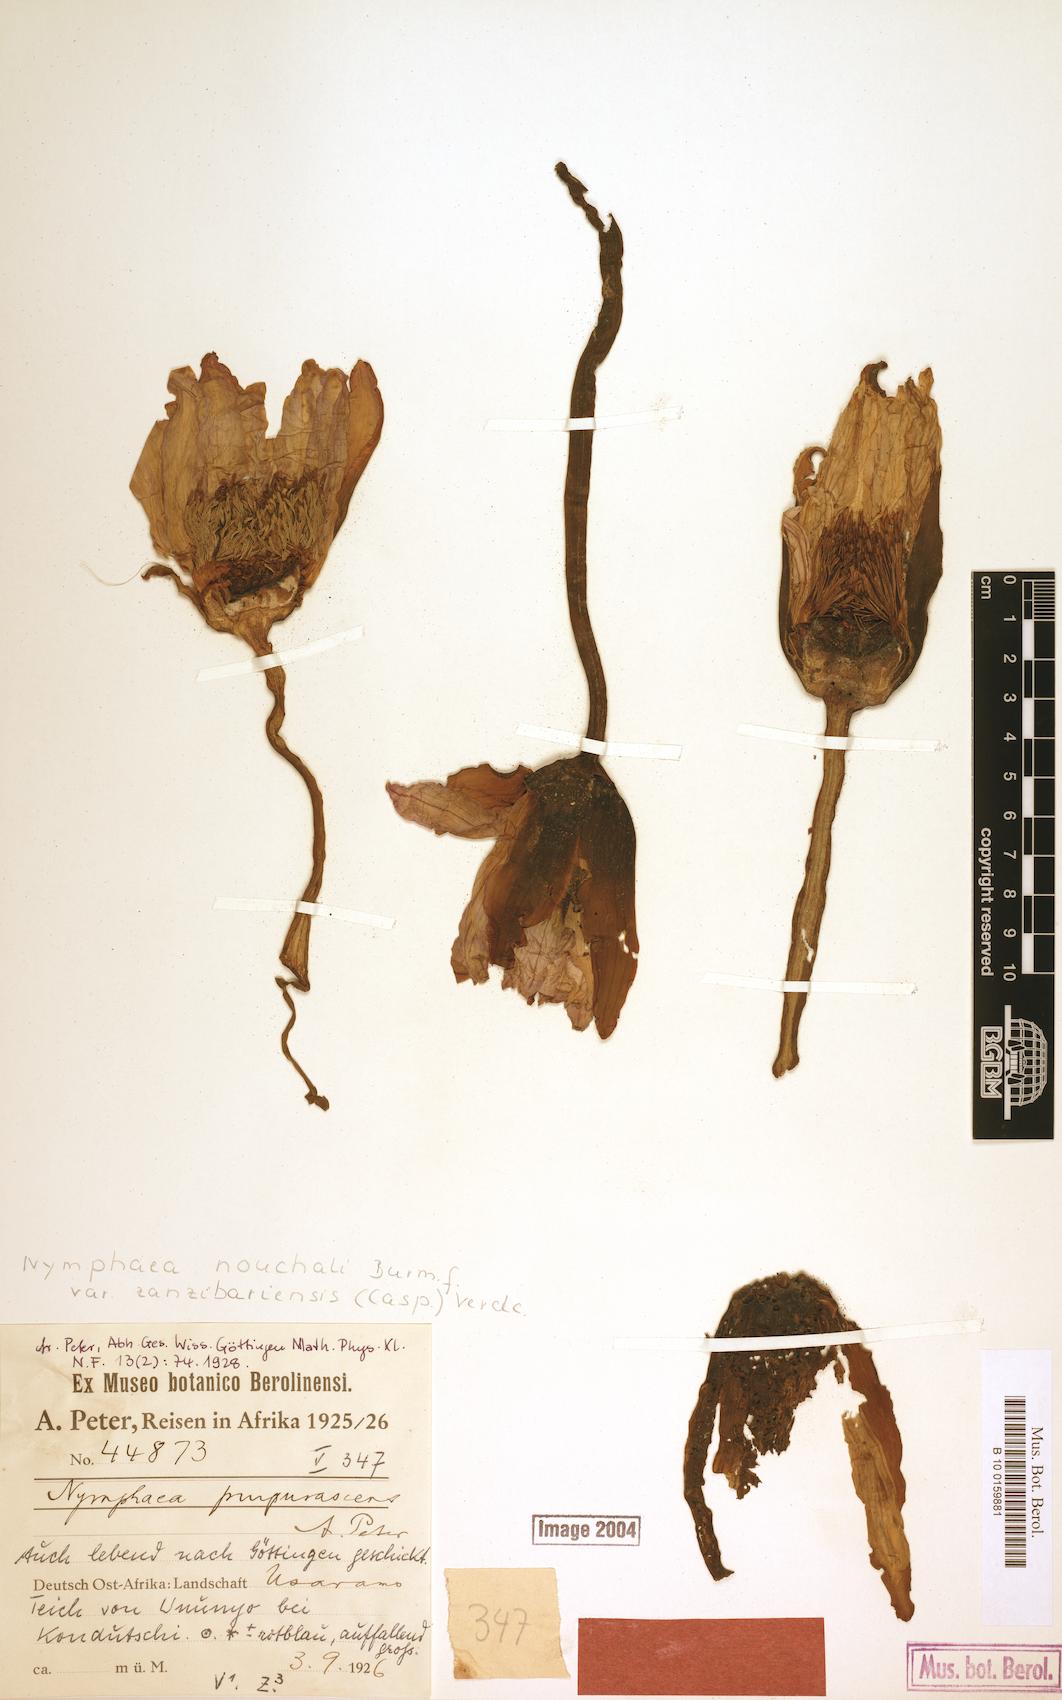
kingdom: Plantae
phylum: Tracheophyta
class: Magnoliopsida
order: Nymphaeales
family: Nymphaeaceae
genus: Nymphaea
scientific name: Nymphaea nouchali
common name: Blue lotus
